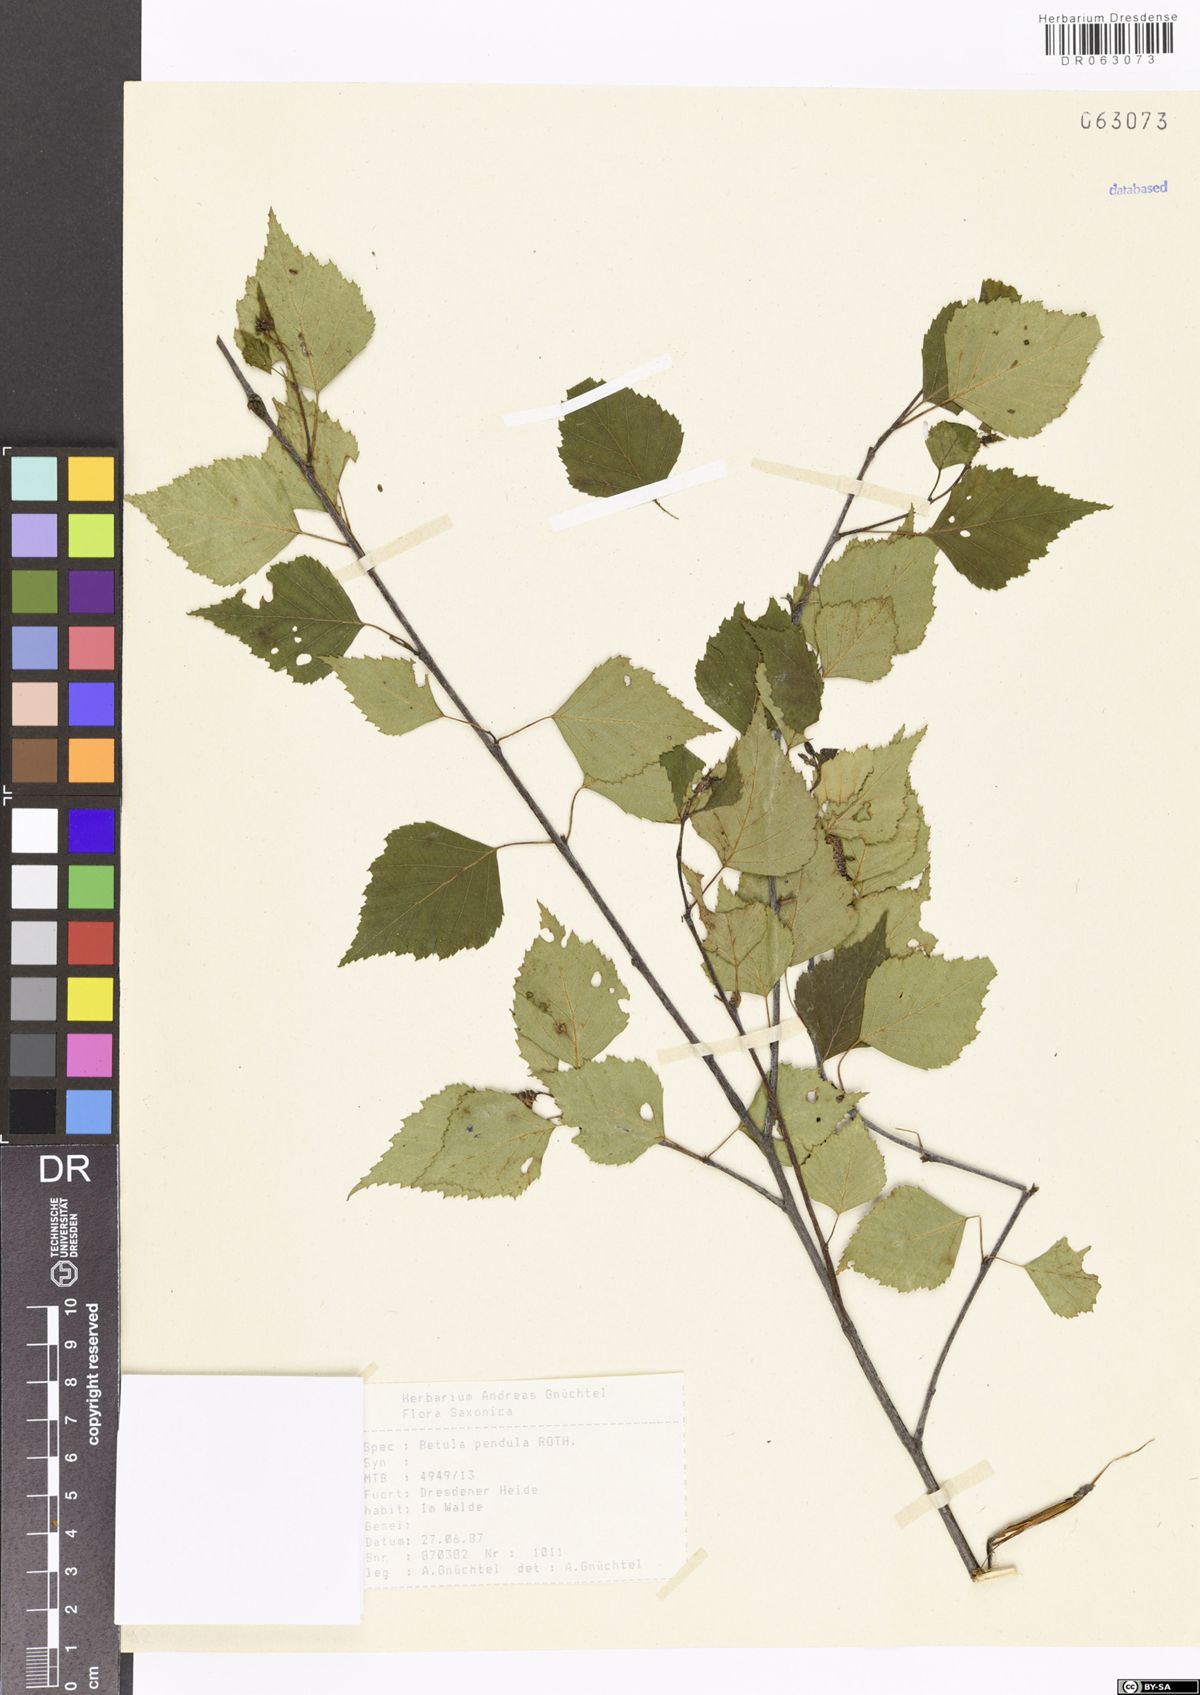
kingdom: Plantae
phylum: Tracheophyta
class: Magnoliopsida
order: Fagales
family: Betulaceae
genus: Betula
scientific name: Betula pendula
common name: Silver birch
